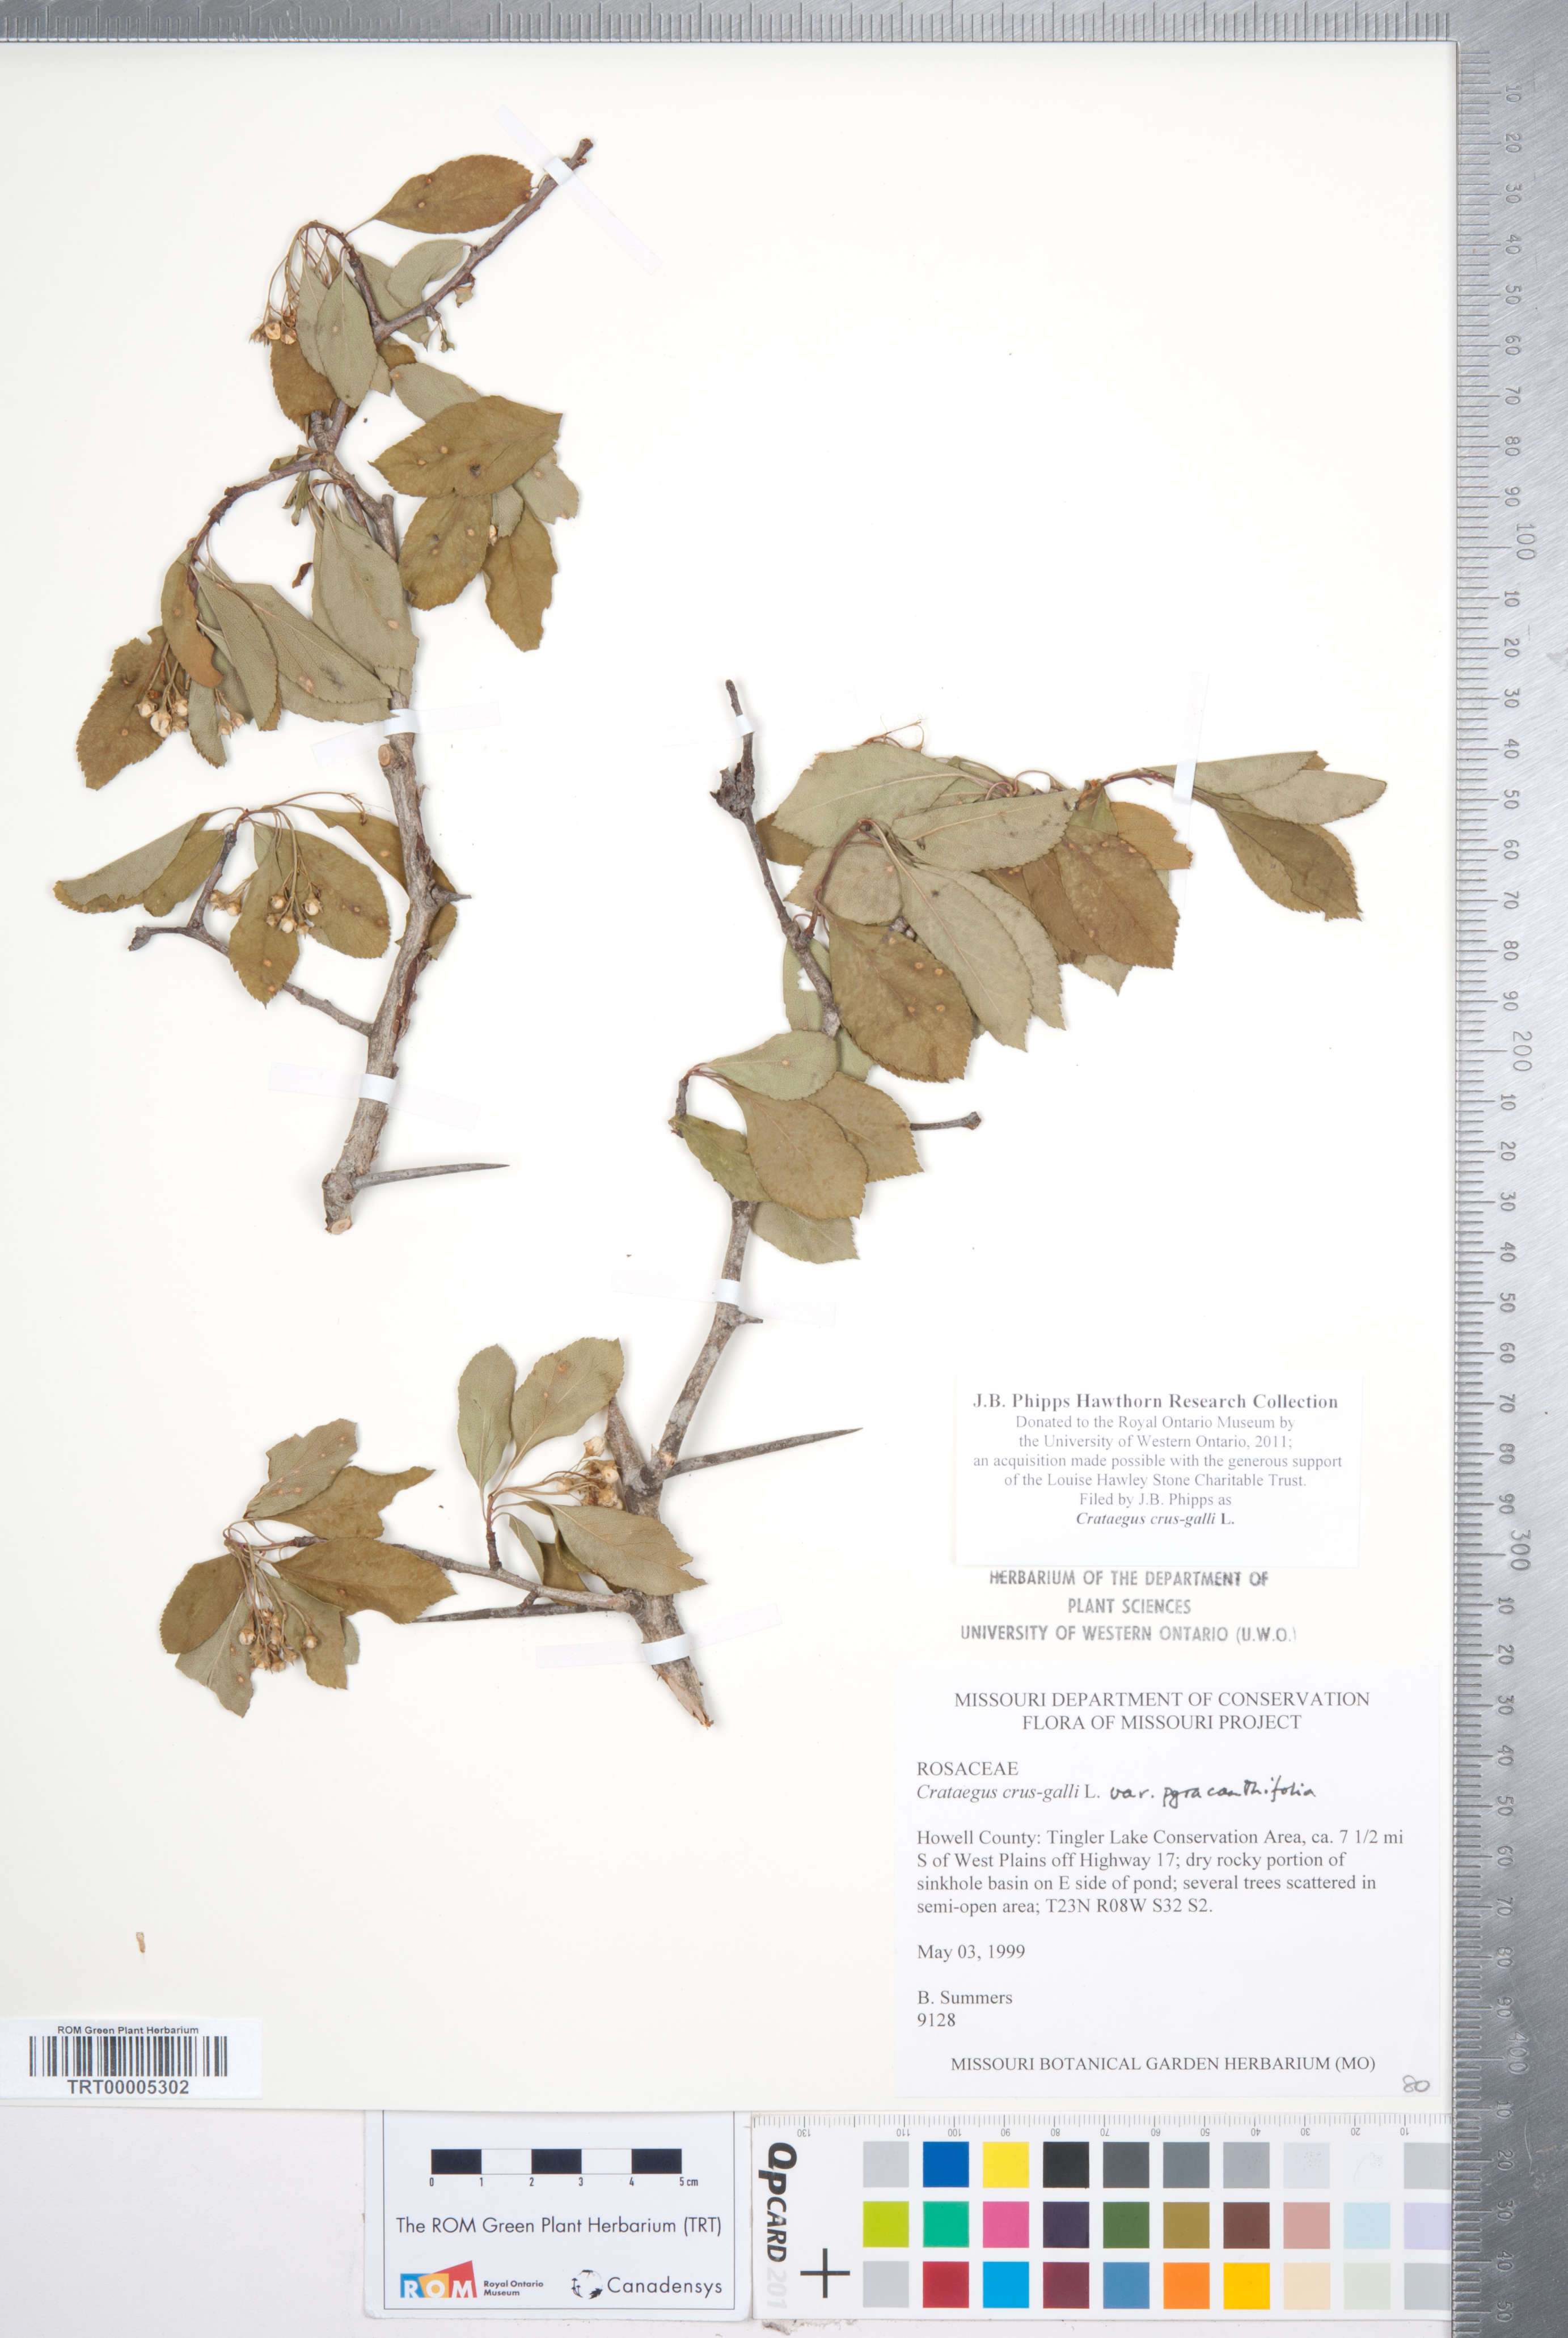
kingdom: Plantae
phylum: Tracheophyta
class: Magnoliopsida
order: Rosales
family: Rosaceae
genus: Crataegus
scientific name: Crataegus crus-galli
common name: Cockspurthorn
